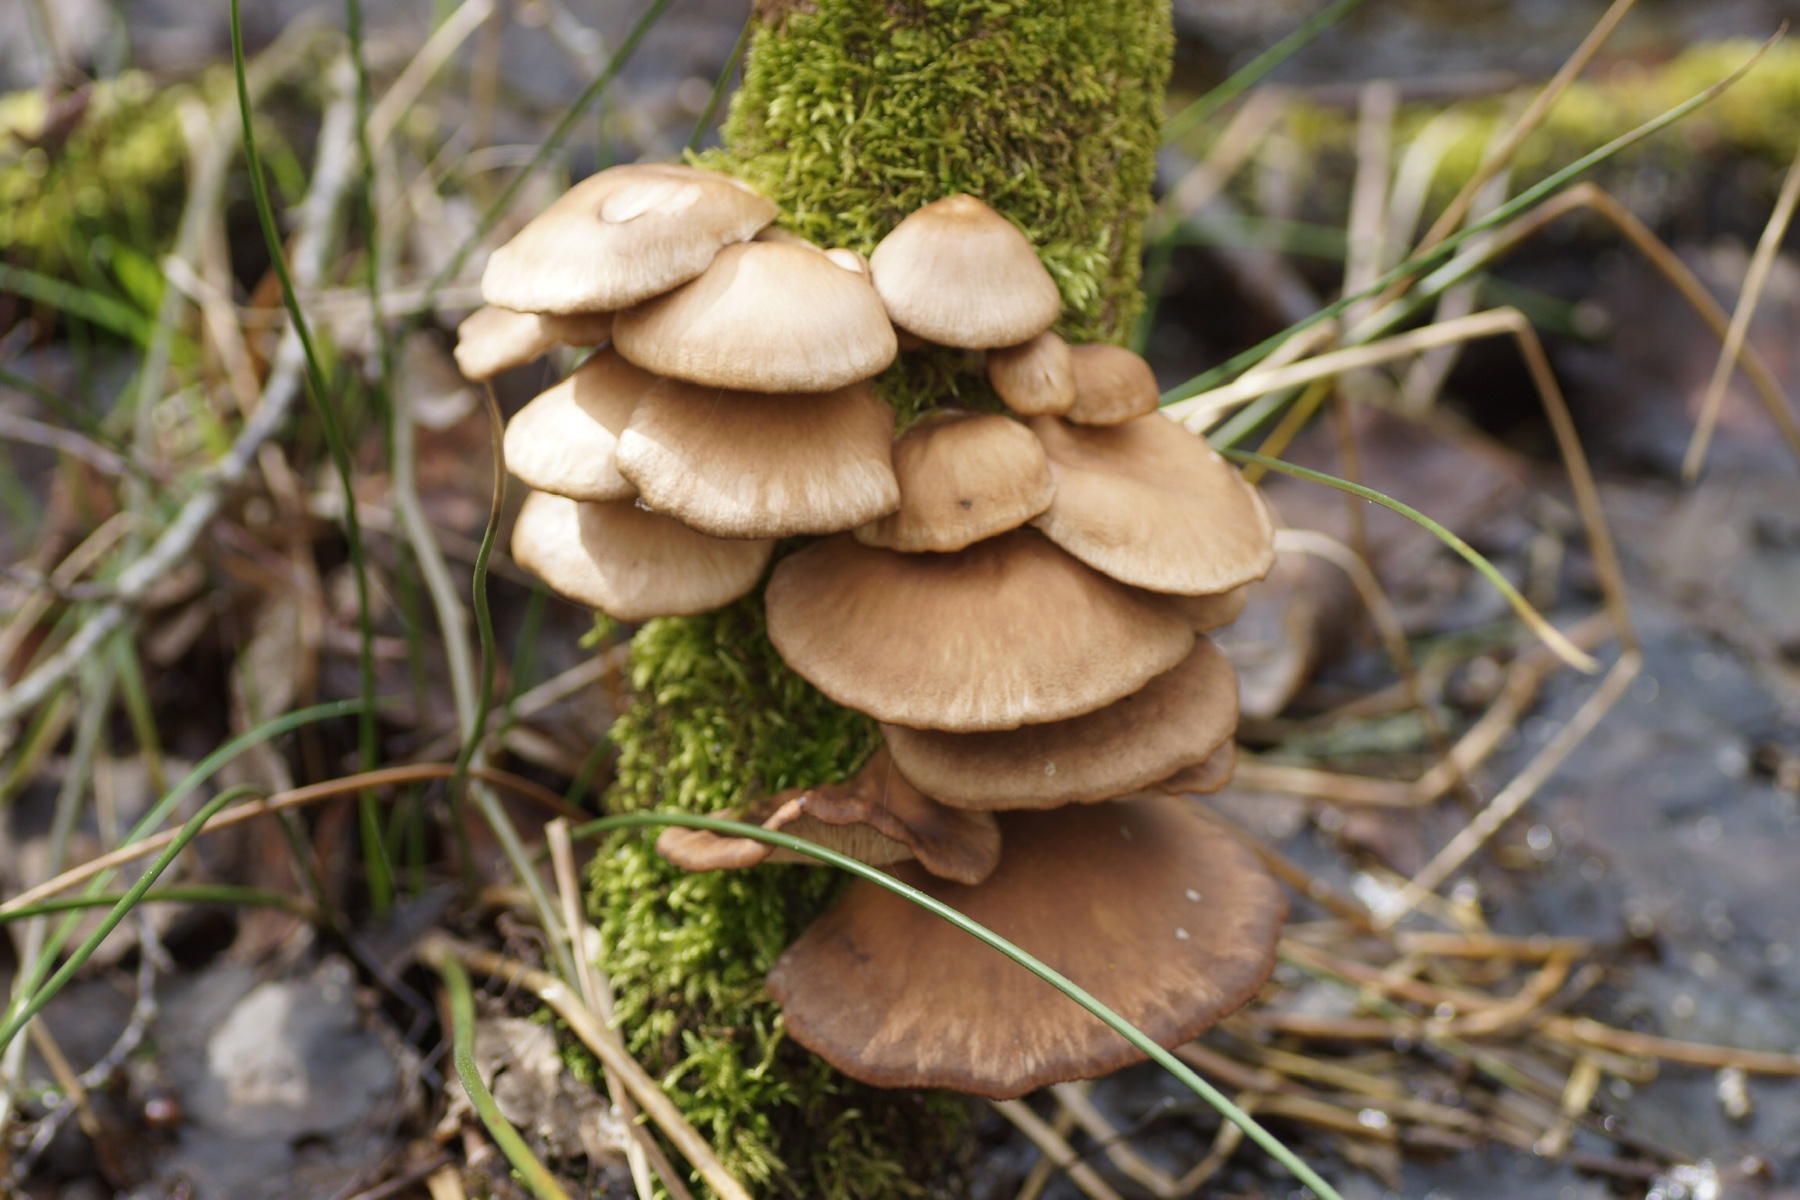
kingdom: Fungi
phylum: Basidiomycota
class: Agaricomycetes
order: Agaricales
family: Pleurotaceae
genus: Pleurotus
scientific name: Pleurotus ostreatus
